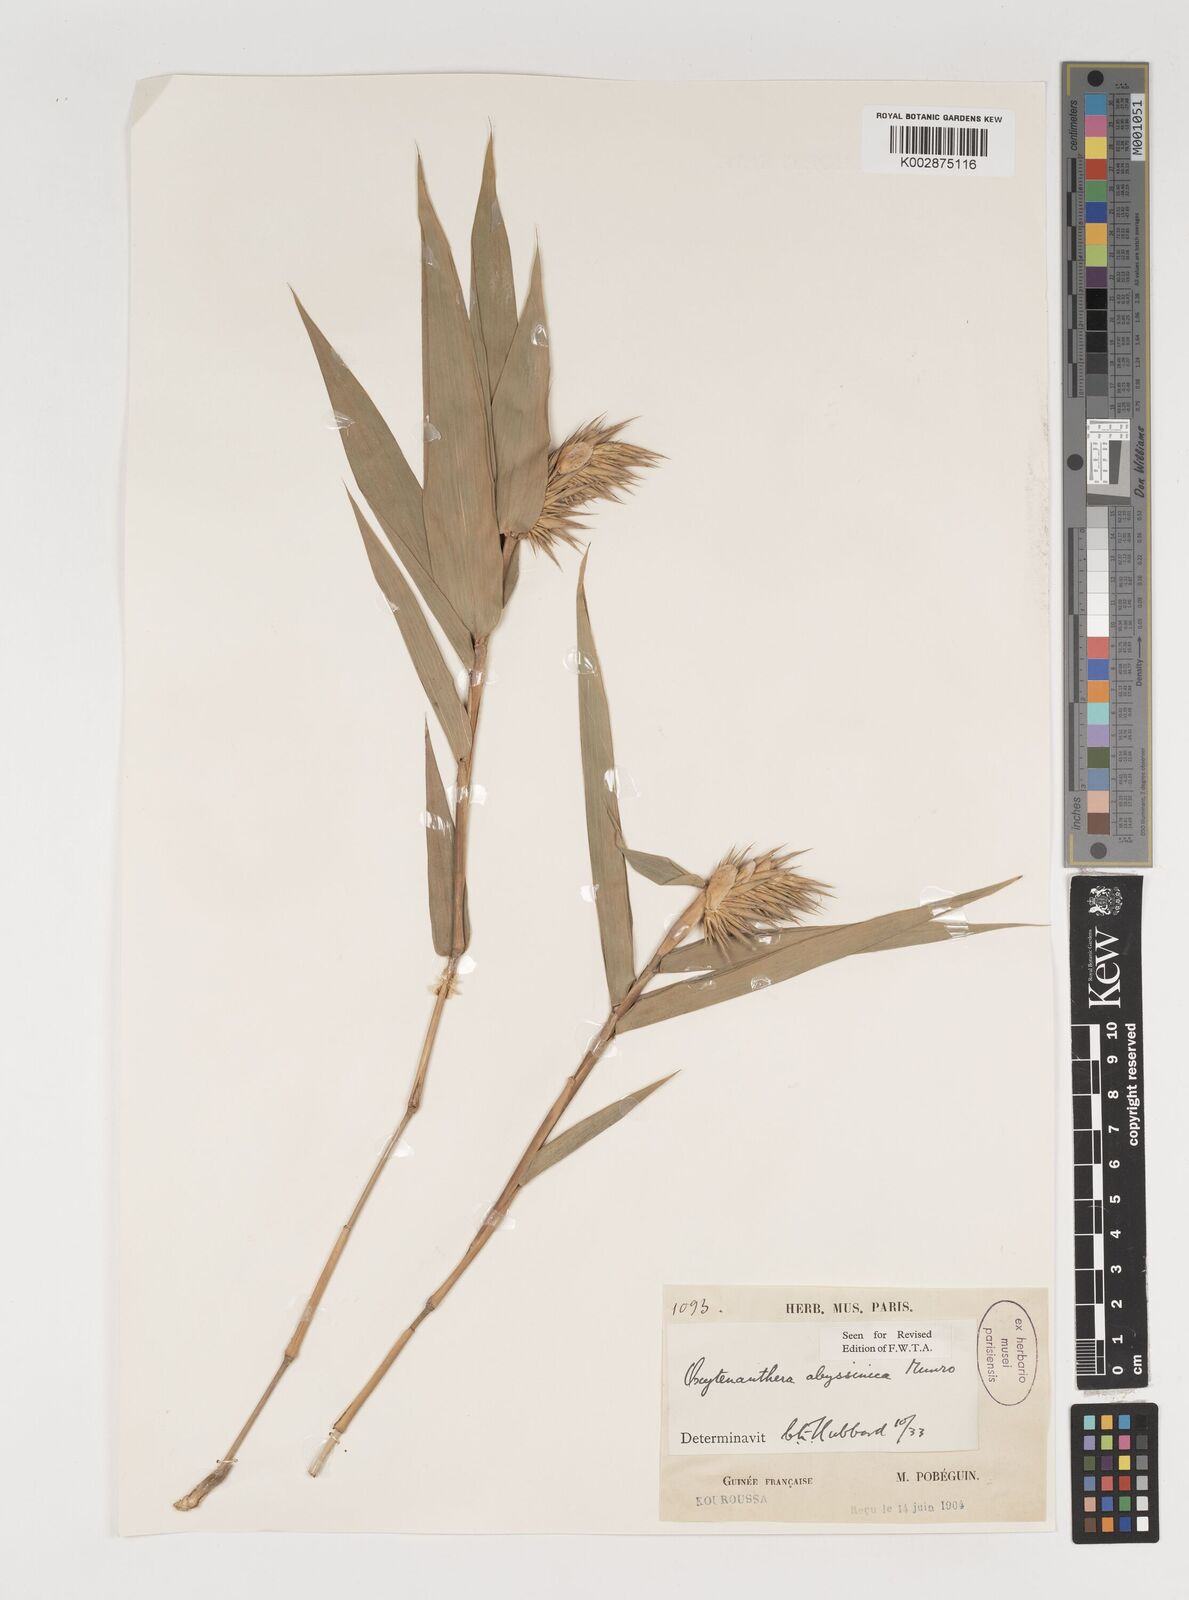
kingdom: Plantae
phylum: Tracheophyta
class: Liliopsida
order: Poales
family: Poaceae
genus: Oxytenanthera
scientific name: Oxytenanthera abyssinica
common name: Wine bamboo
